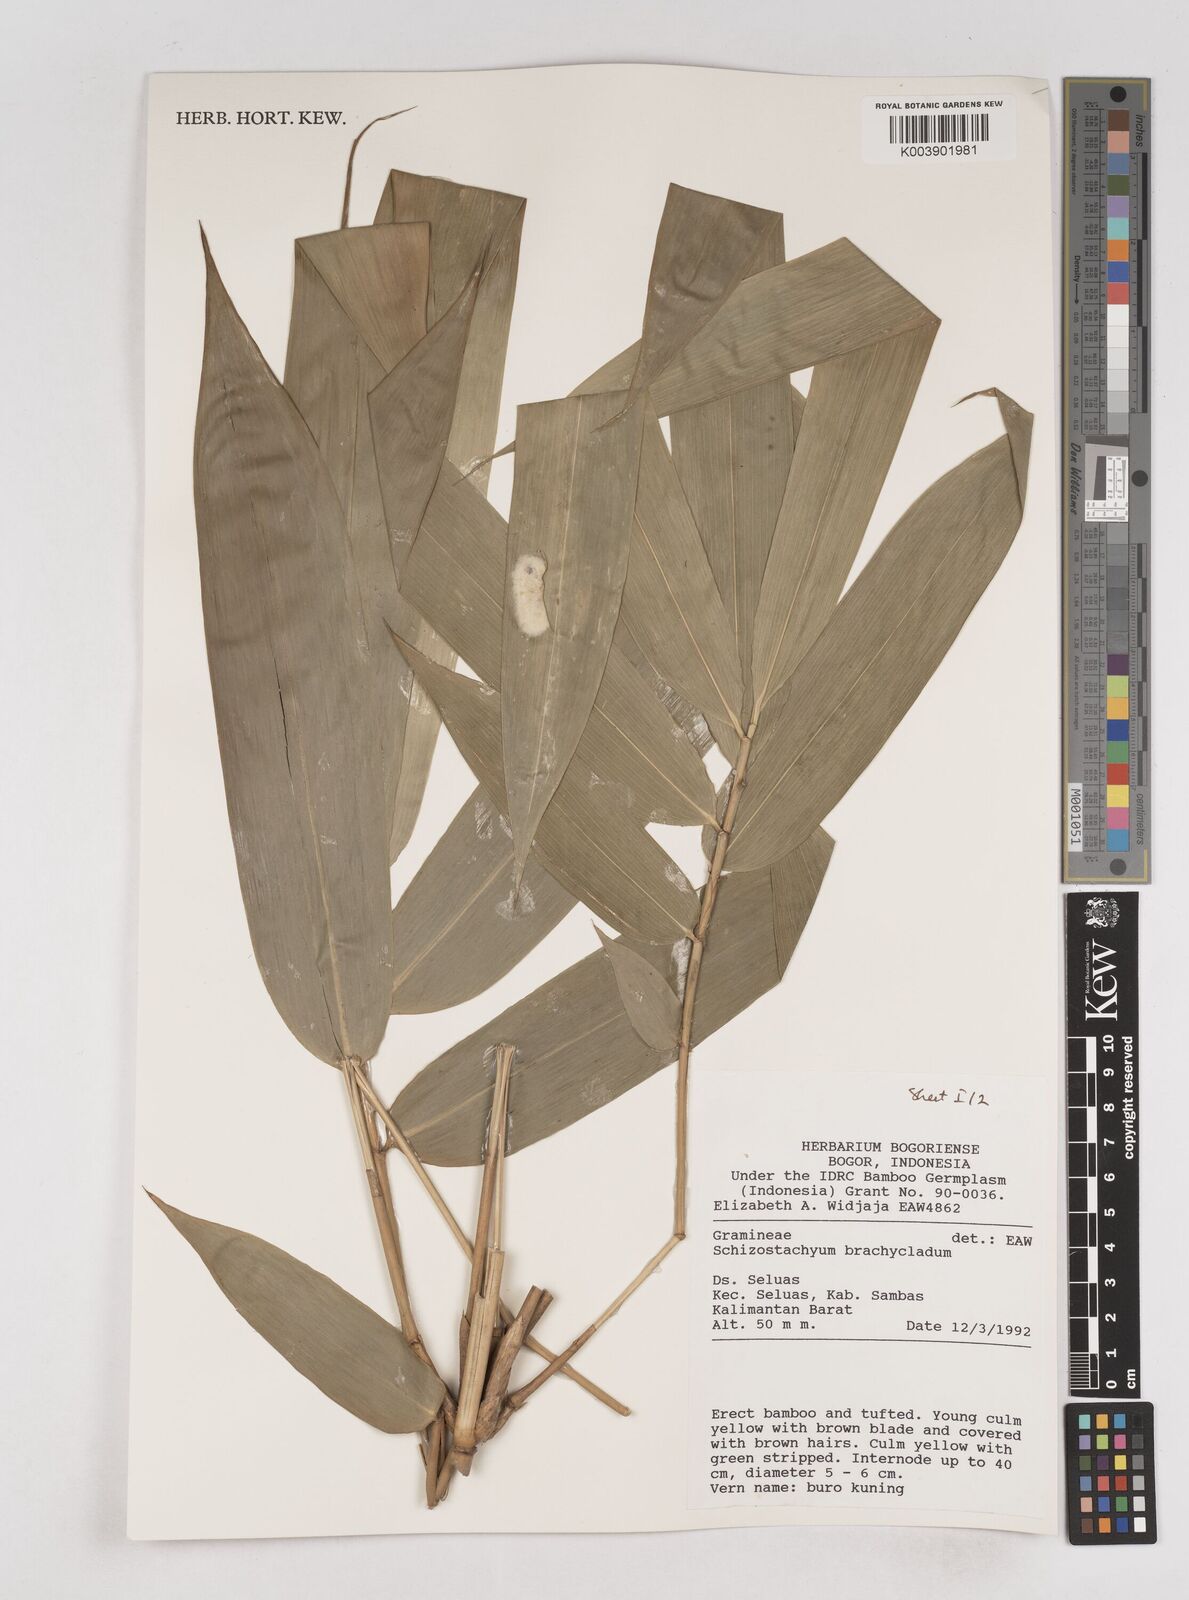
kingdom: Plantae
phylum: Tracheophyta
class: Liliopsida
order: Poales
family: Poaceae
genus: Schizostachyum
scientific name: Schizostachyum brachycladum
